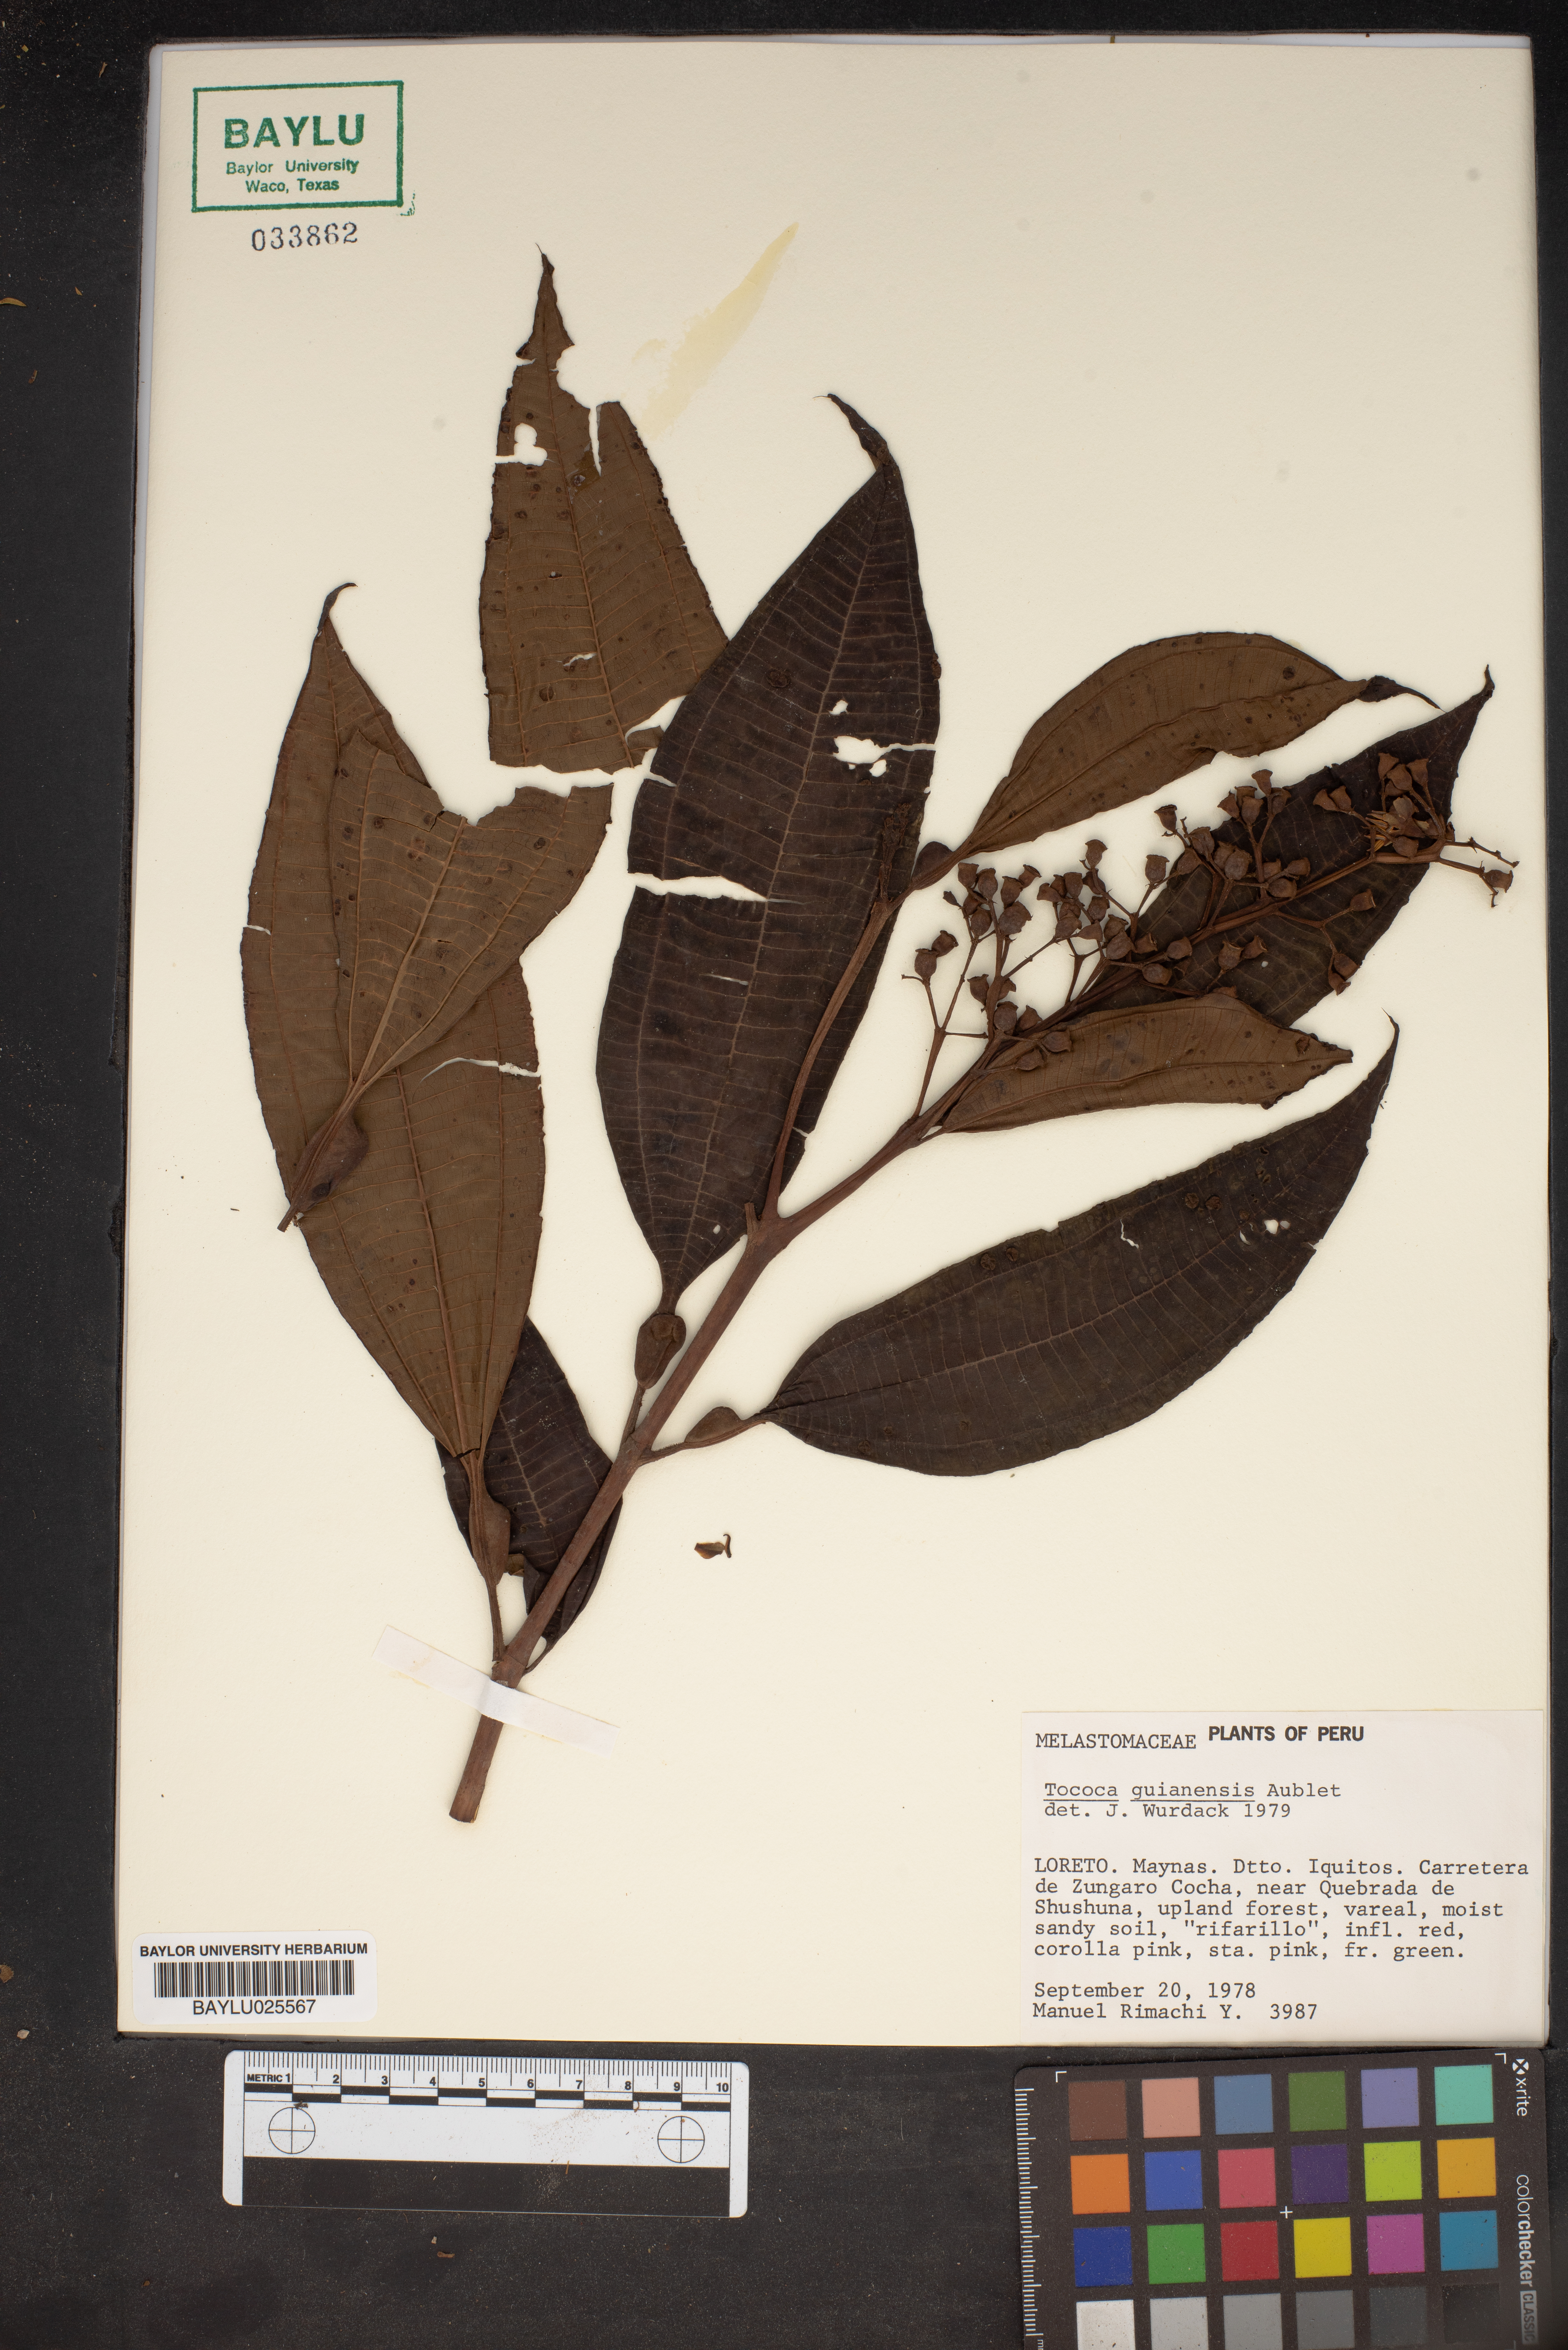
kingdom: Plantae
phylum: Tracheophyta
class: Magnoliopsida
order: Myrtales
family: Melastomataceae
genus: Miconia
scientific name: Miconia tococa
